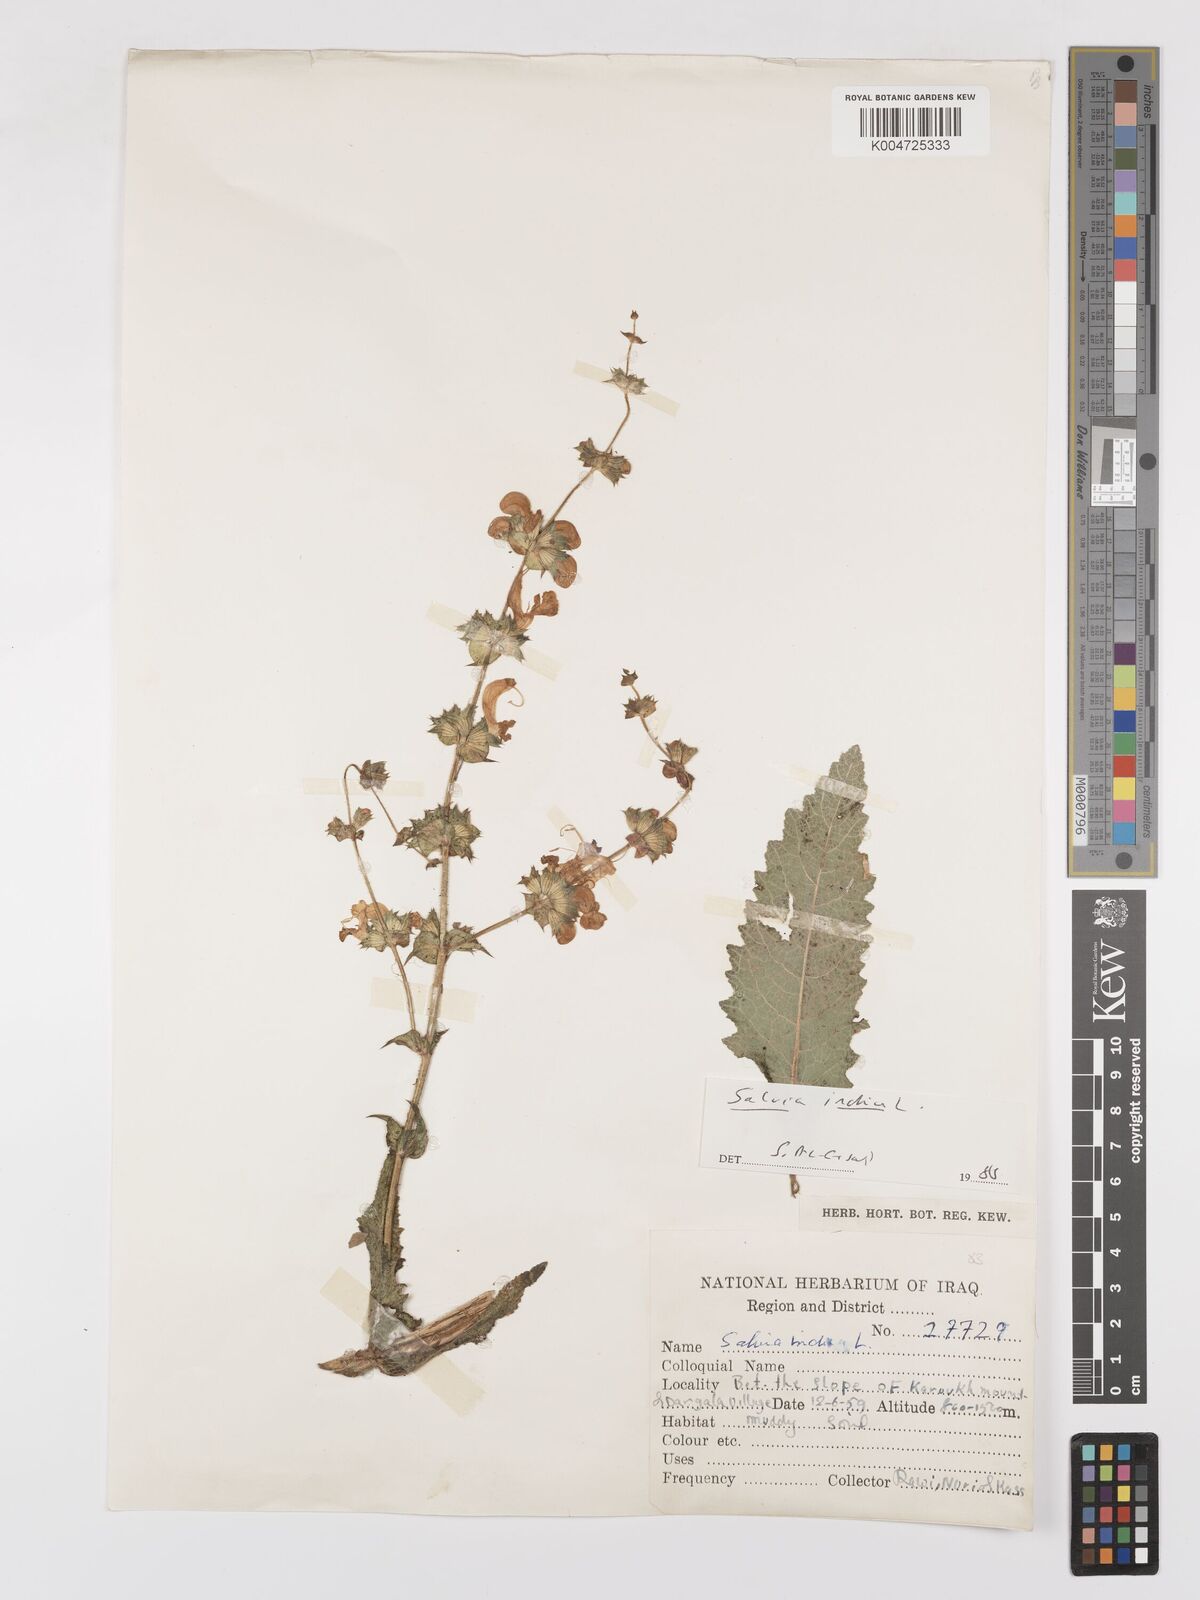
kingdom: Plantae
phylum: Tracheophyta
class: Magnoliopsida
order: Lamiales
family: Lamiaceae
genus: Salvia
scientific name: Salvia indica
